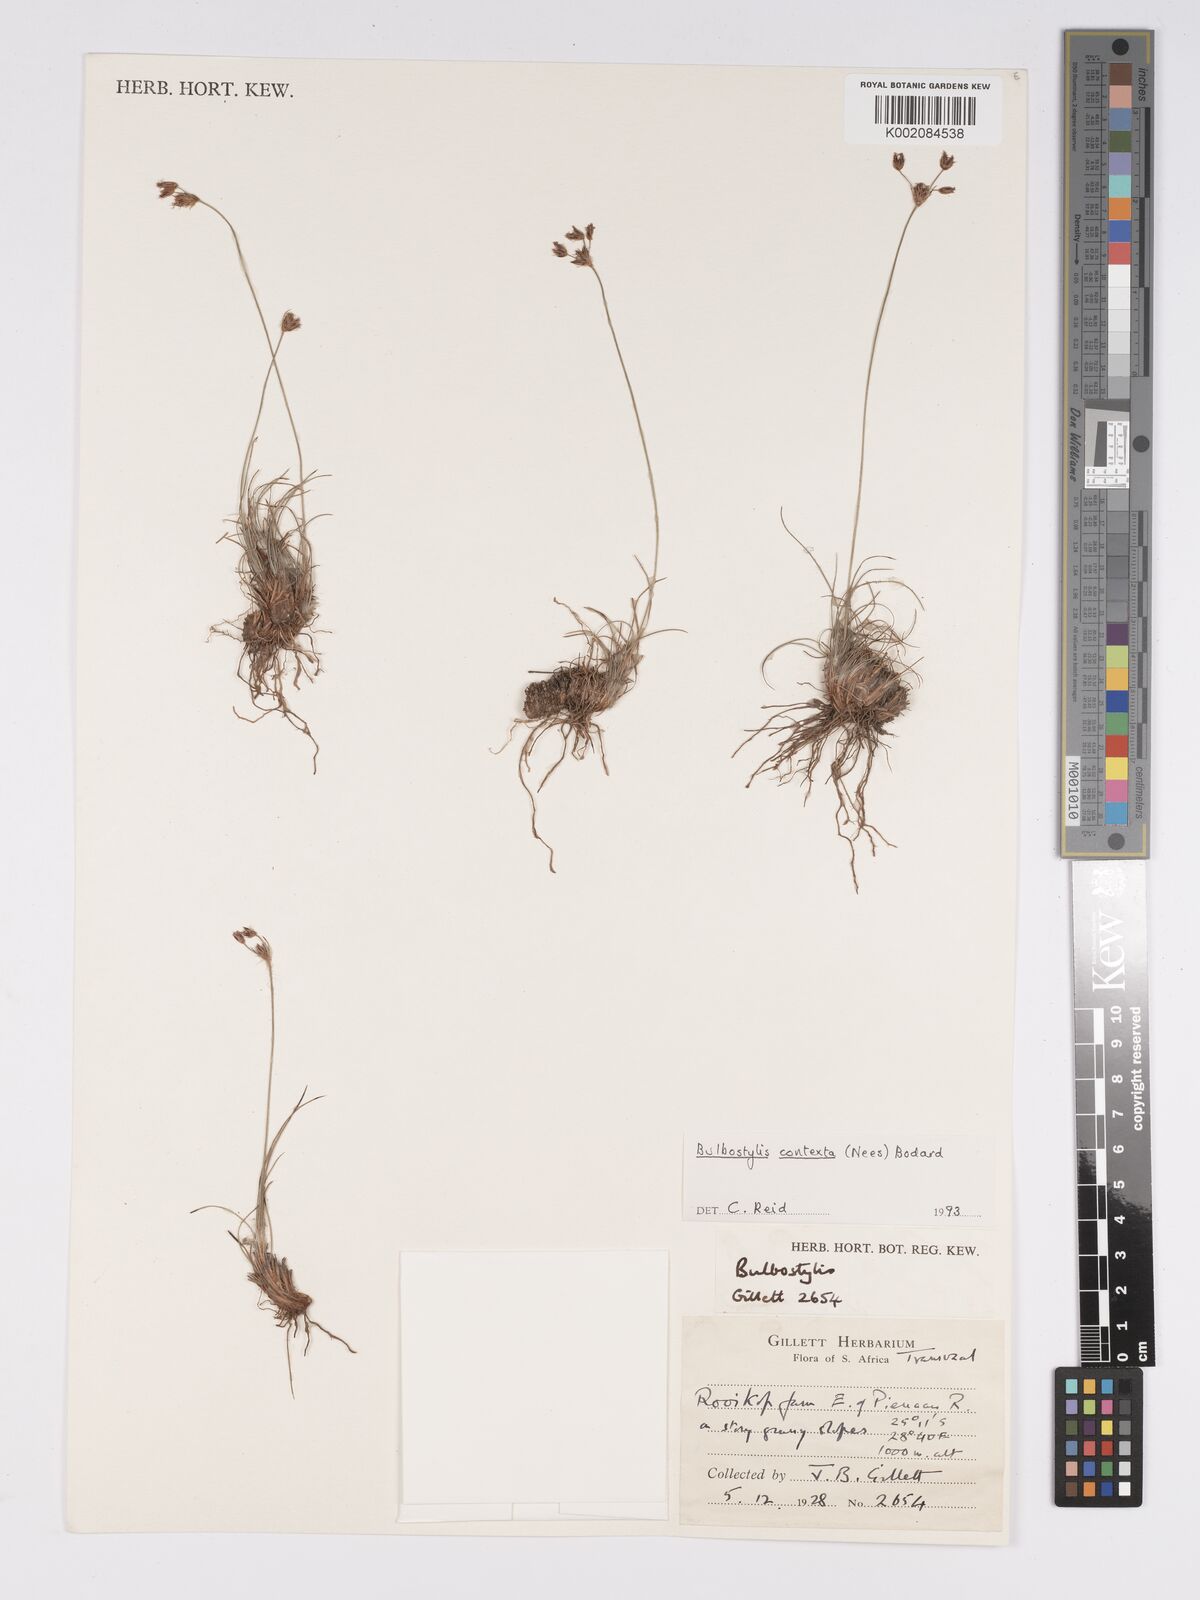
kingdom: Plantae
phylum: Tracheophyta
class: Liliopsida
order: Poales
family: Cyperaceae
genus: Bulbostylis
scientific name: Bulbostylis contexta
